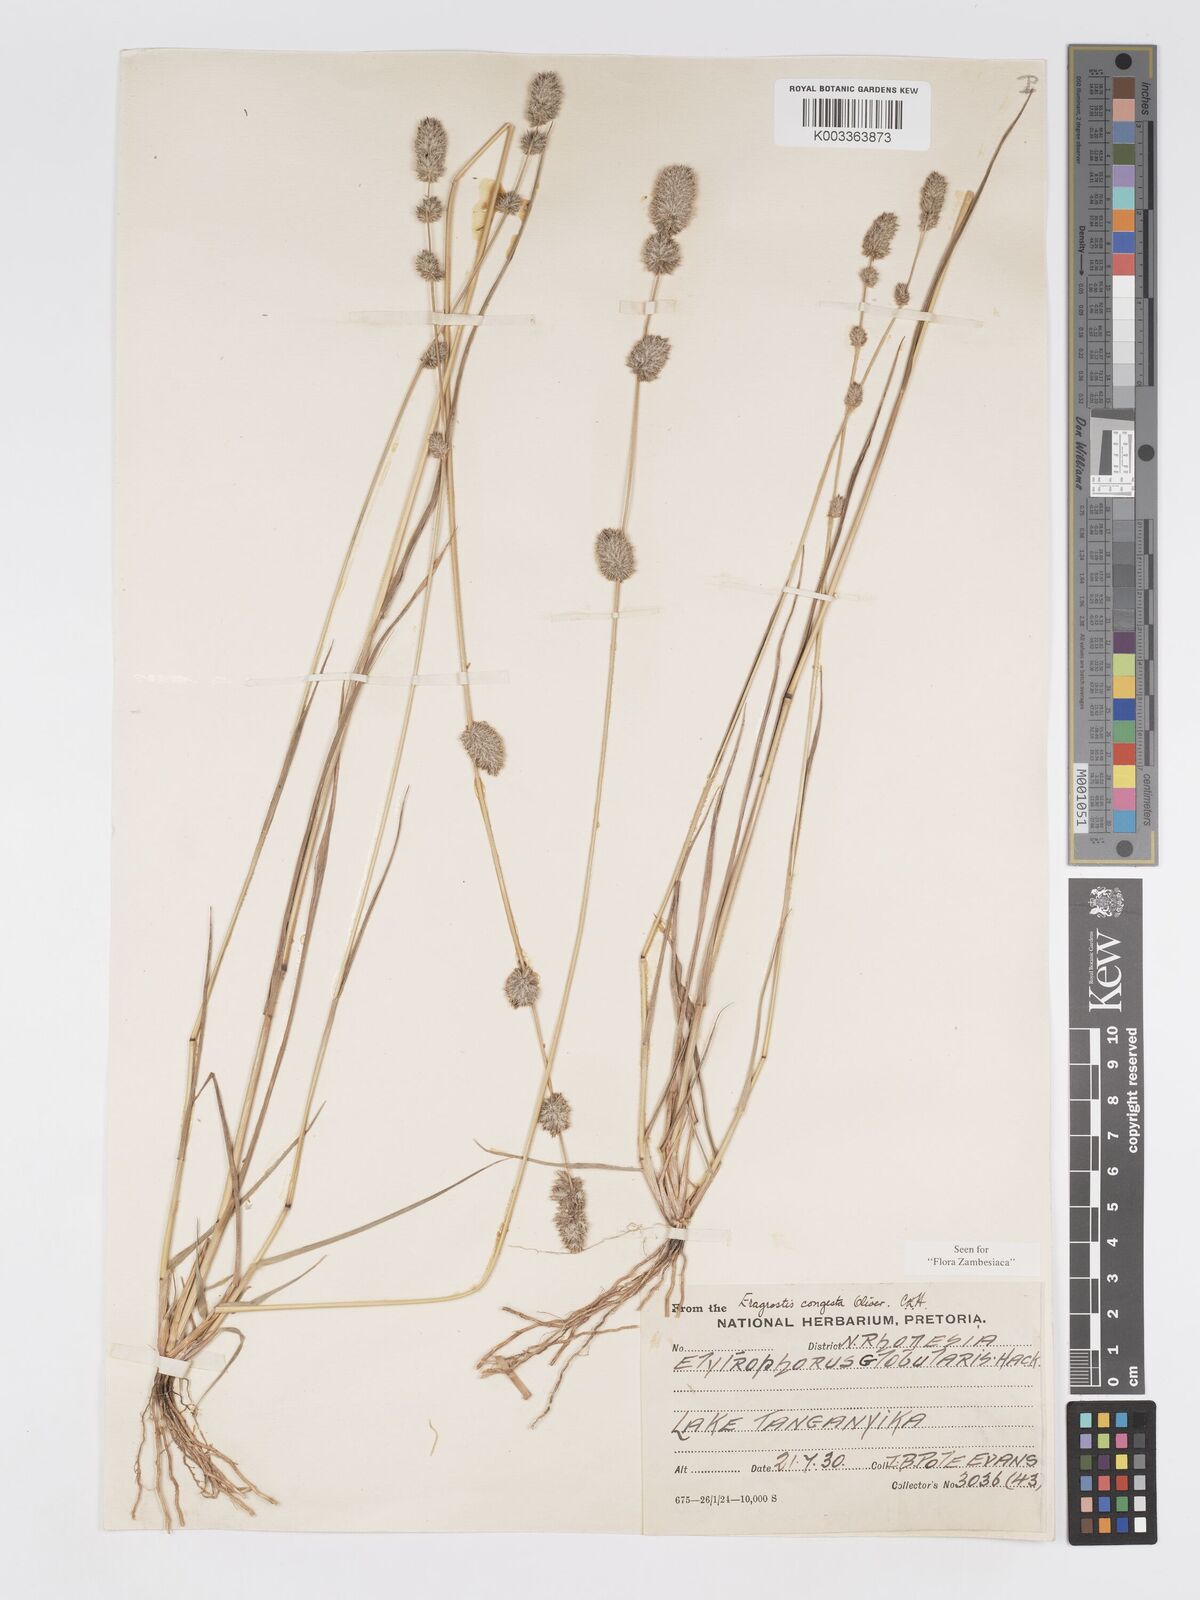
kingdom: Plantae
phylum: Tracheophyta
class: Liliopsida
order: Poales
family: Poaceae
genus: Eragrostis
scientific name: Eragrostis congesta
